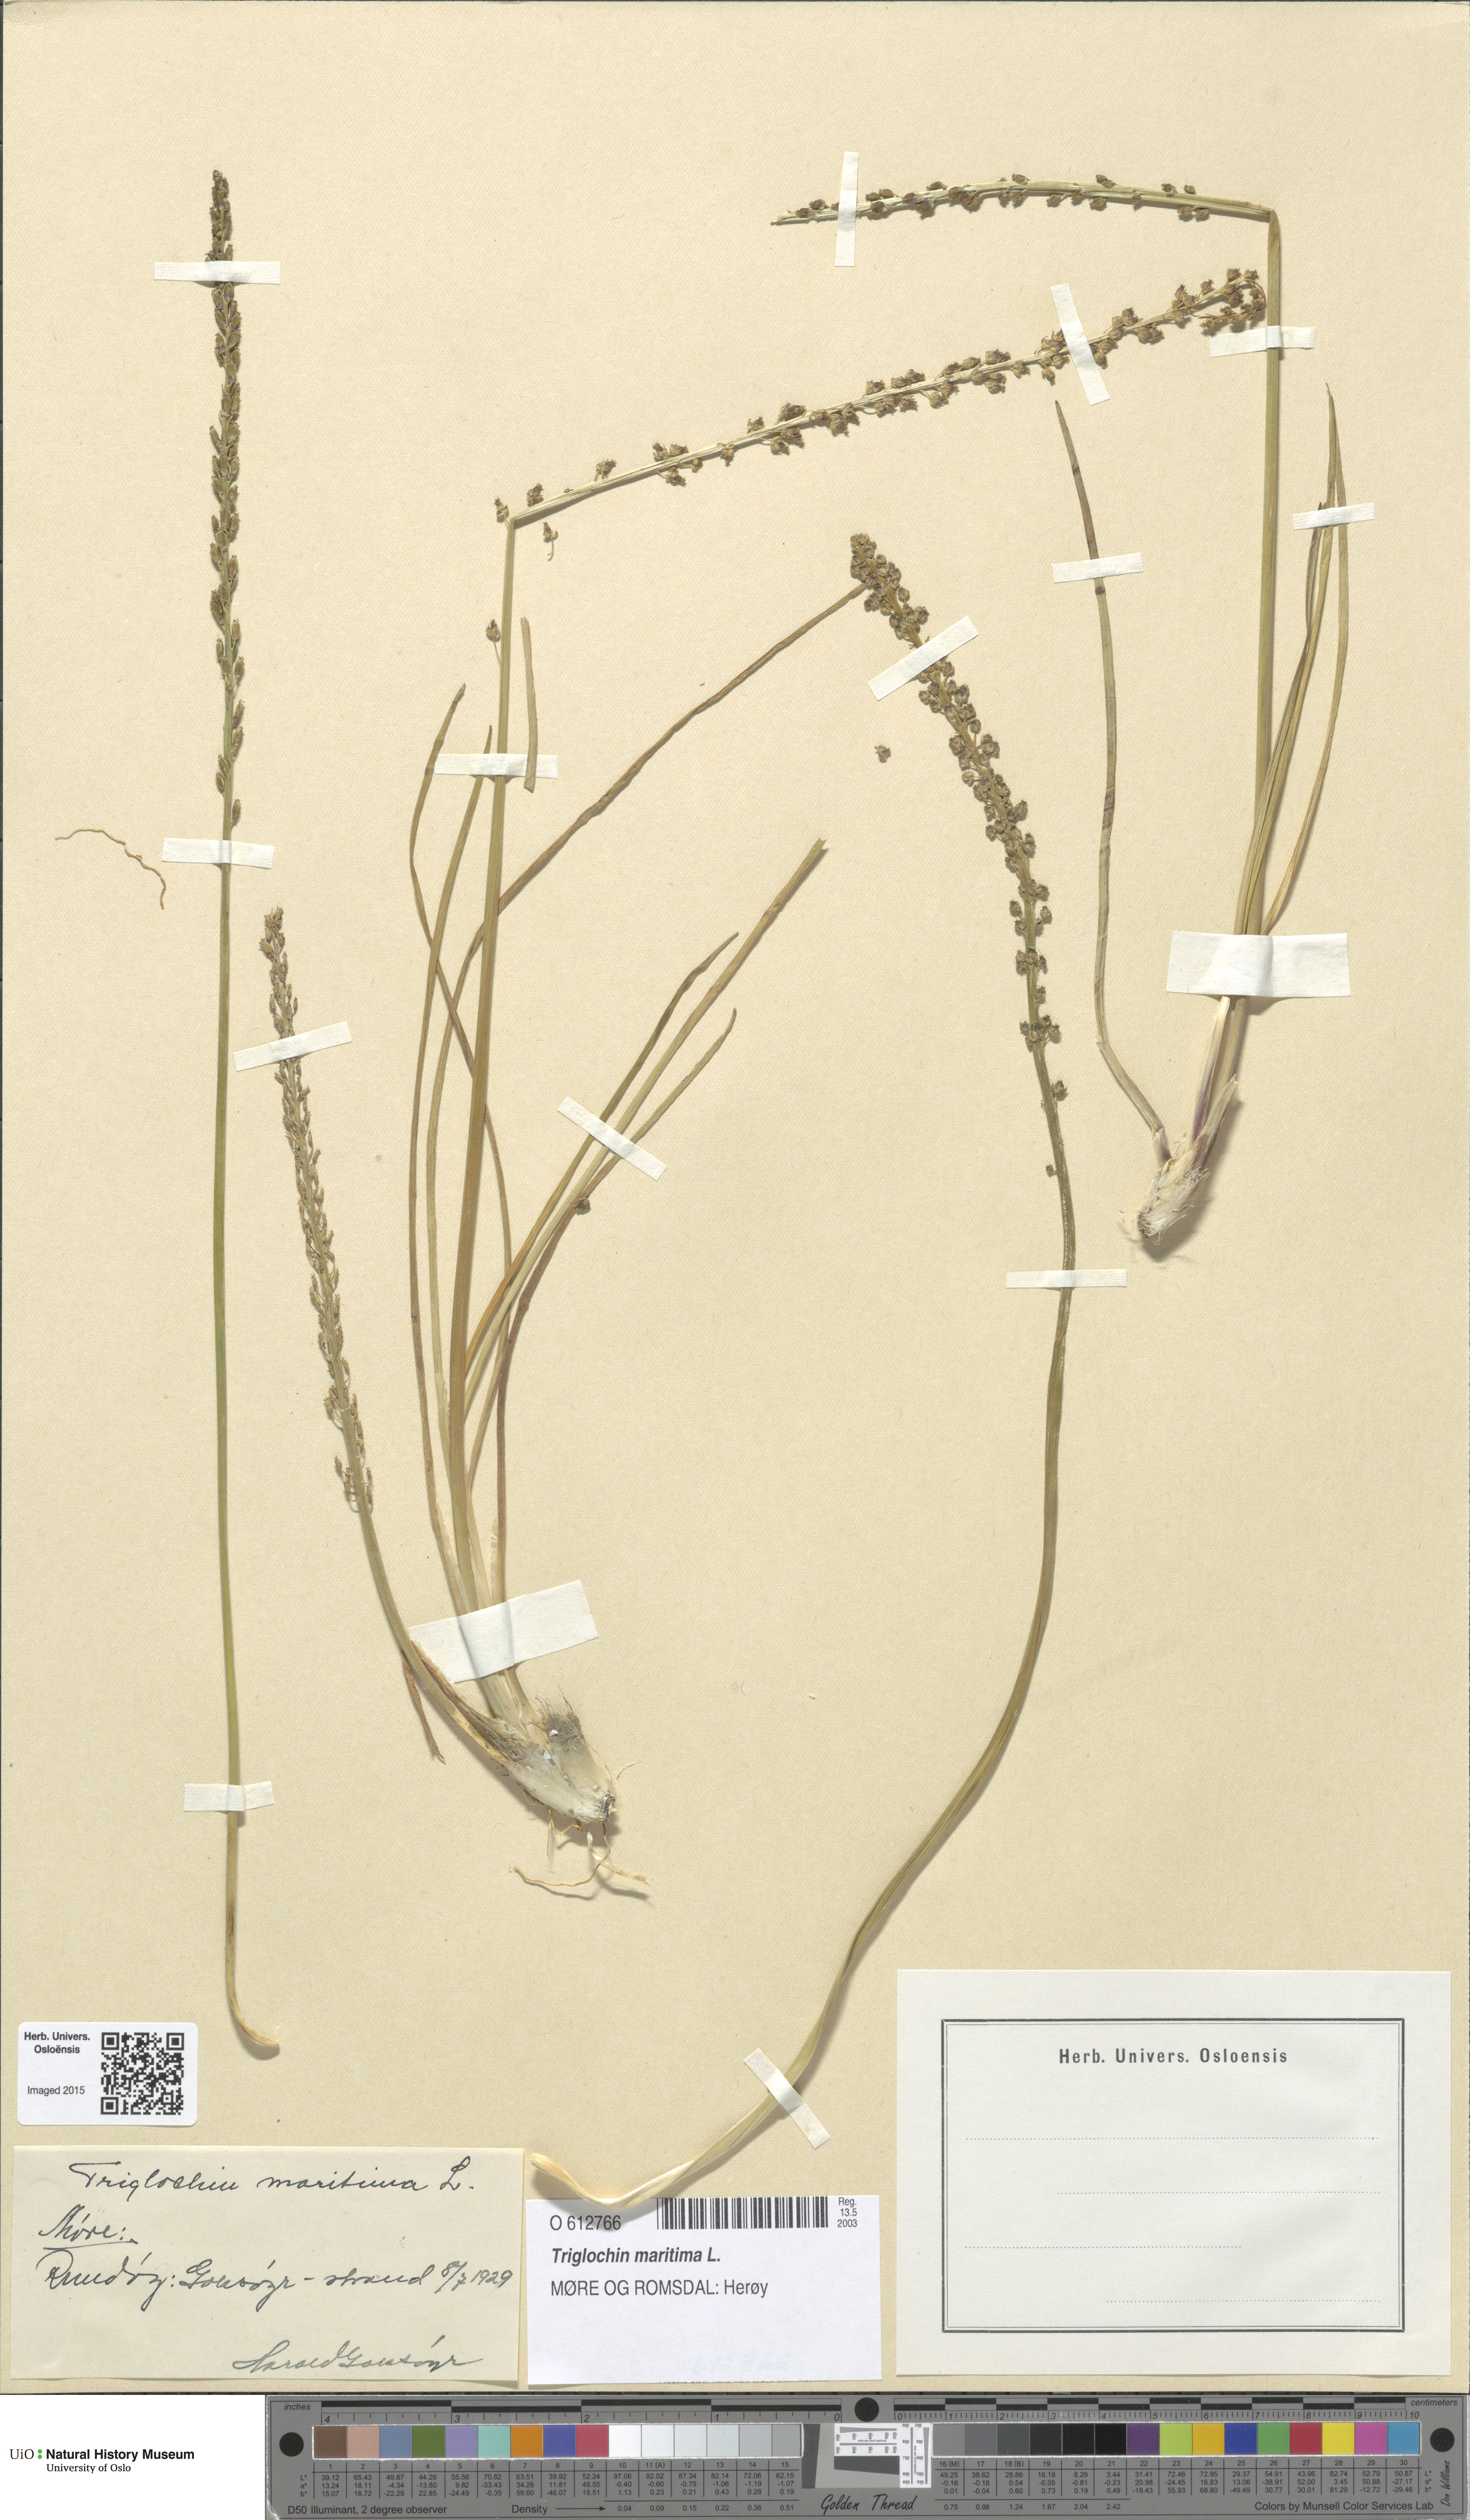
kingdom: Plantae
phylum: Tracheophyta
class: Liliopsida
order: Alismatales
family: Juncaginaceae
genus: Triglochin
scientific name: Triglochin maritima
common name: Sea arrowgrass
